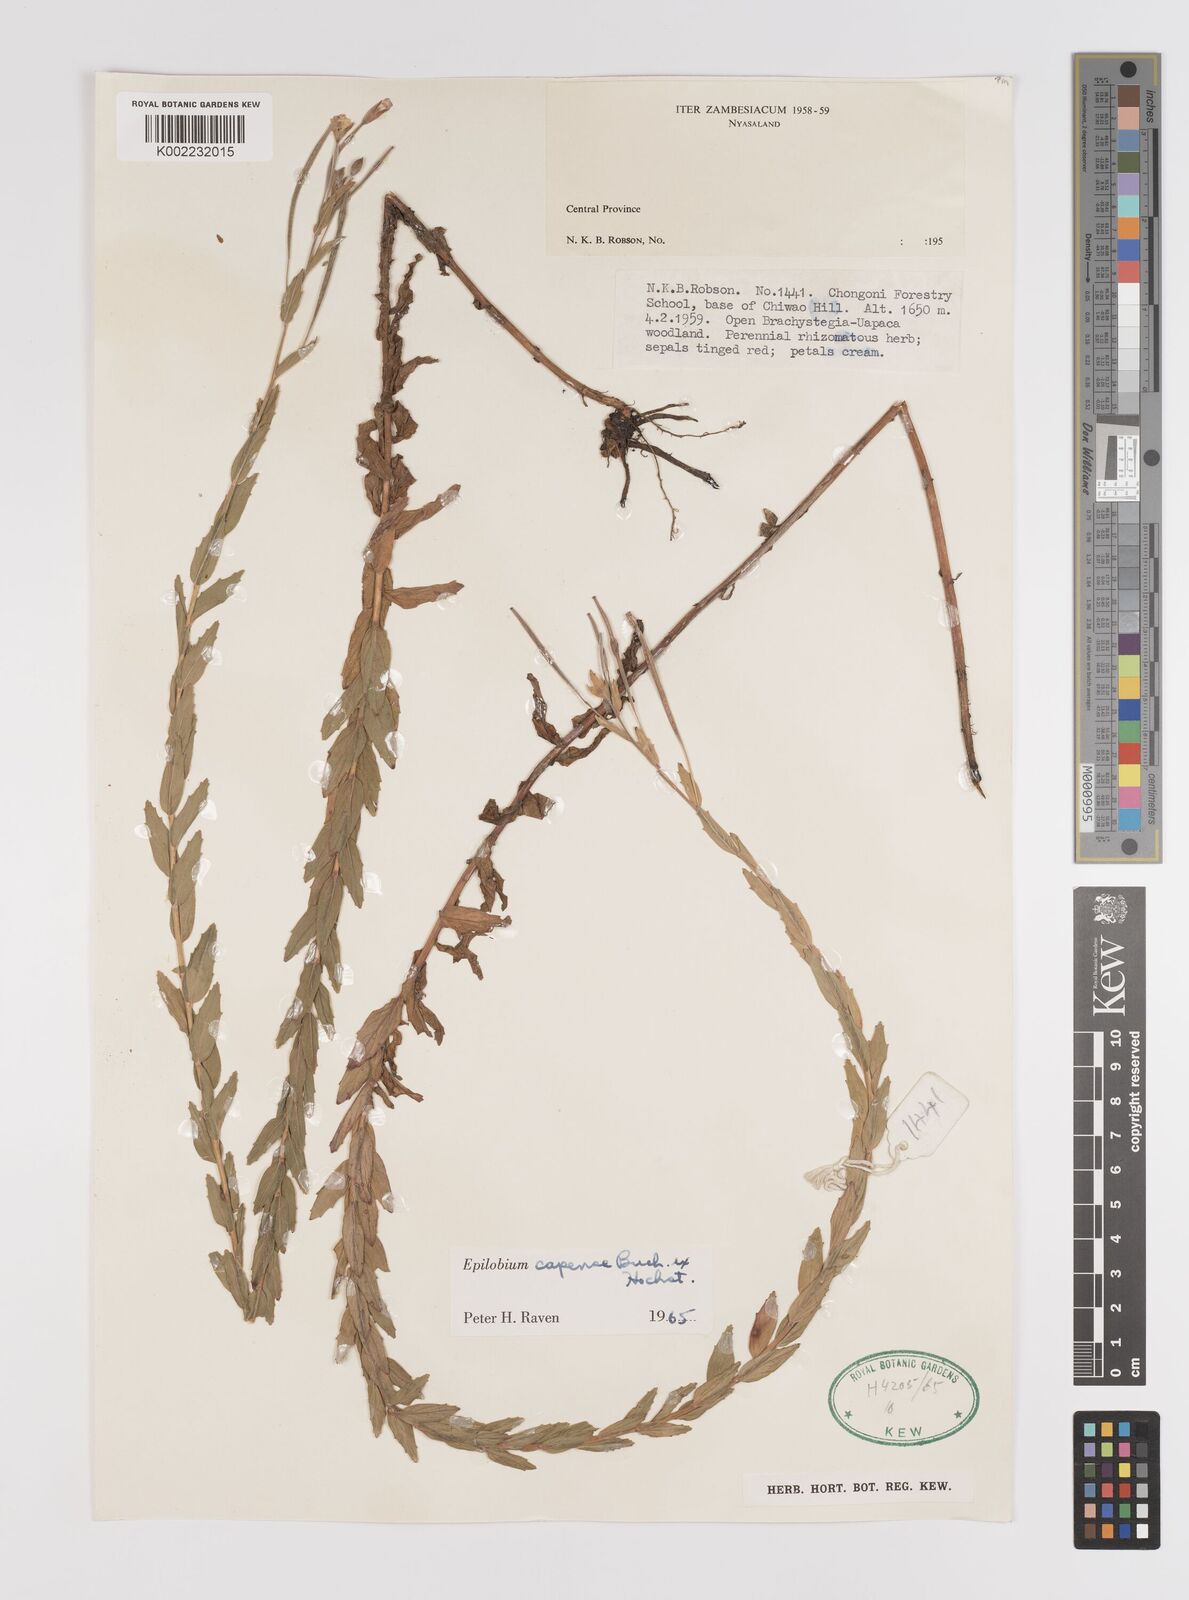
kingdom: Plantae
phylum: Tracheophyta
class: Magnoliopsida
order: Myrtales
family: Onagraceae
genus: Epilobium
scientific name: Epilobium capense
